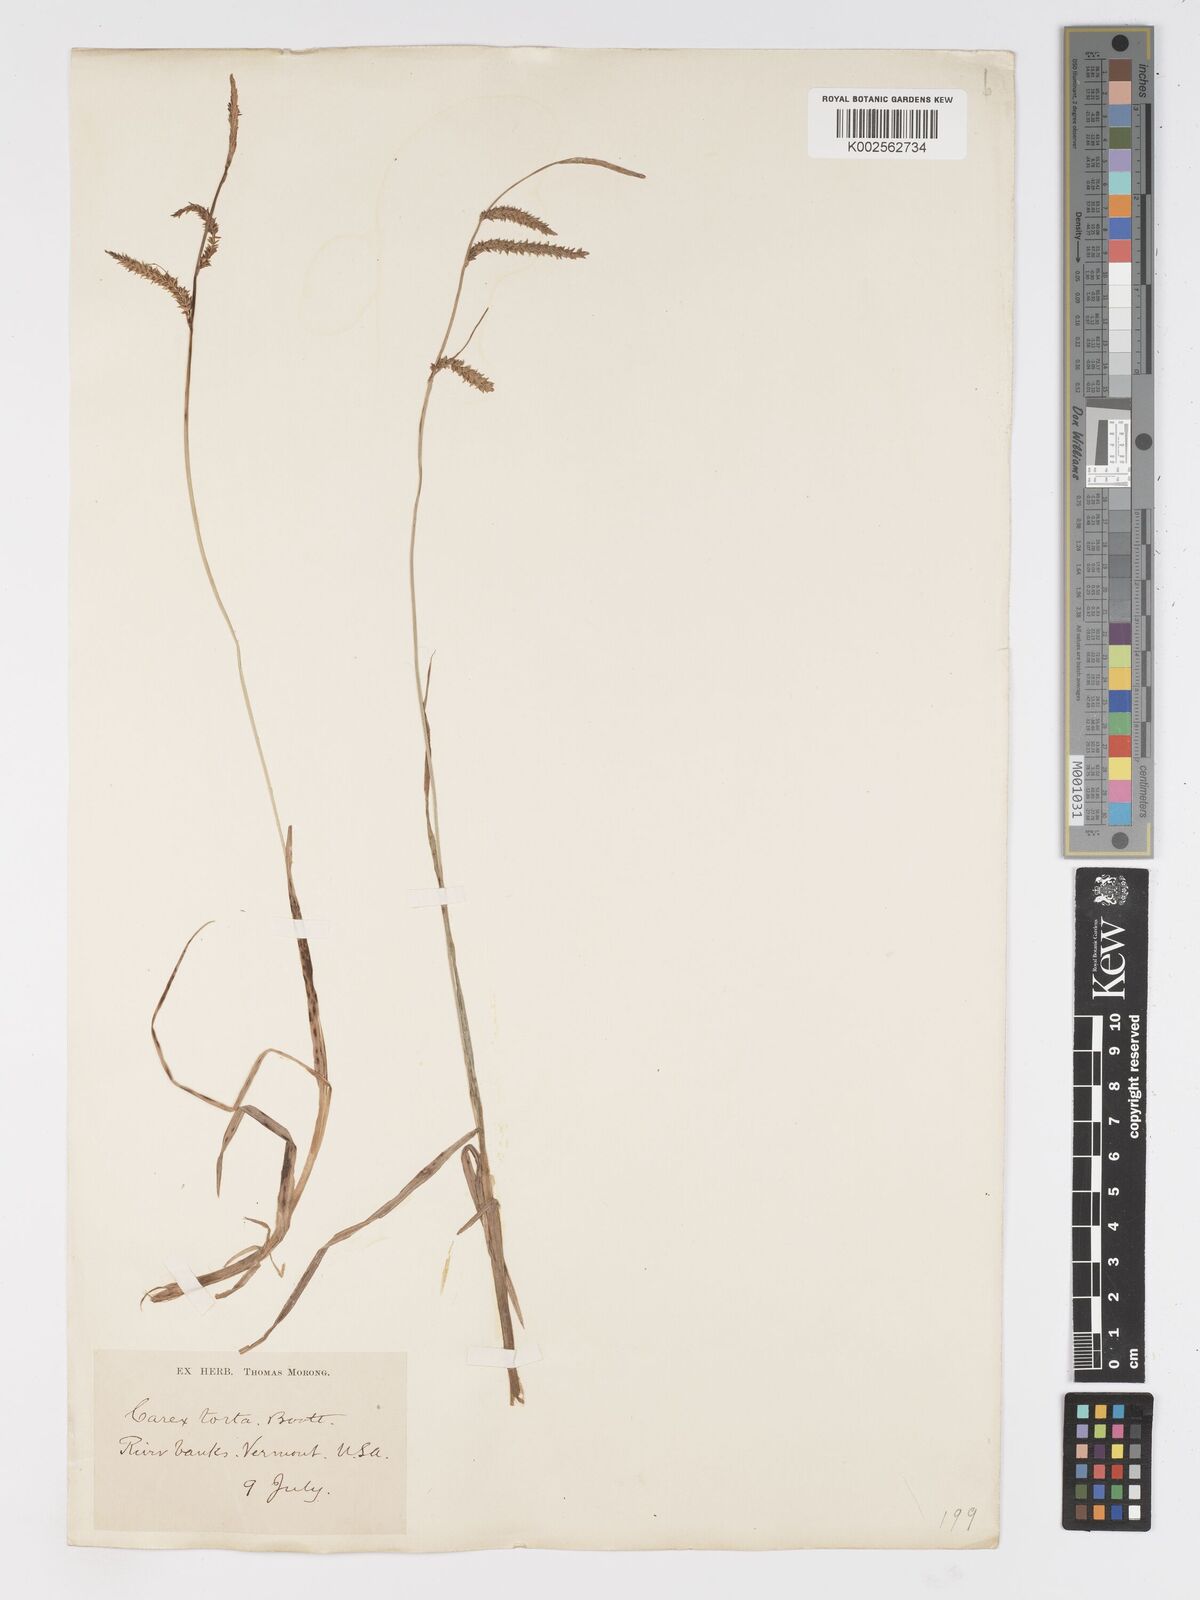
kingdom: Plantae
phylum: Tracheophyta
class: Liliopsida
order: Poales
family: Cyperaceae
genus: Carex
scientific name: Carex torta
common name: Twisted sedge
